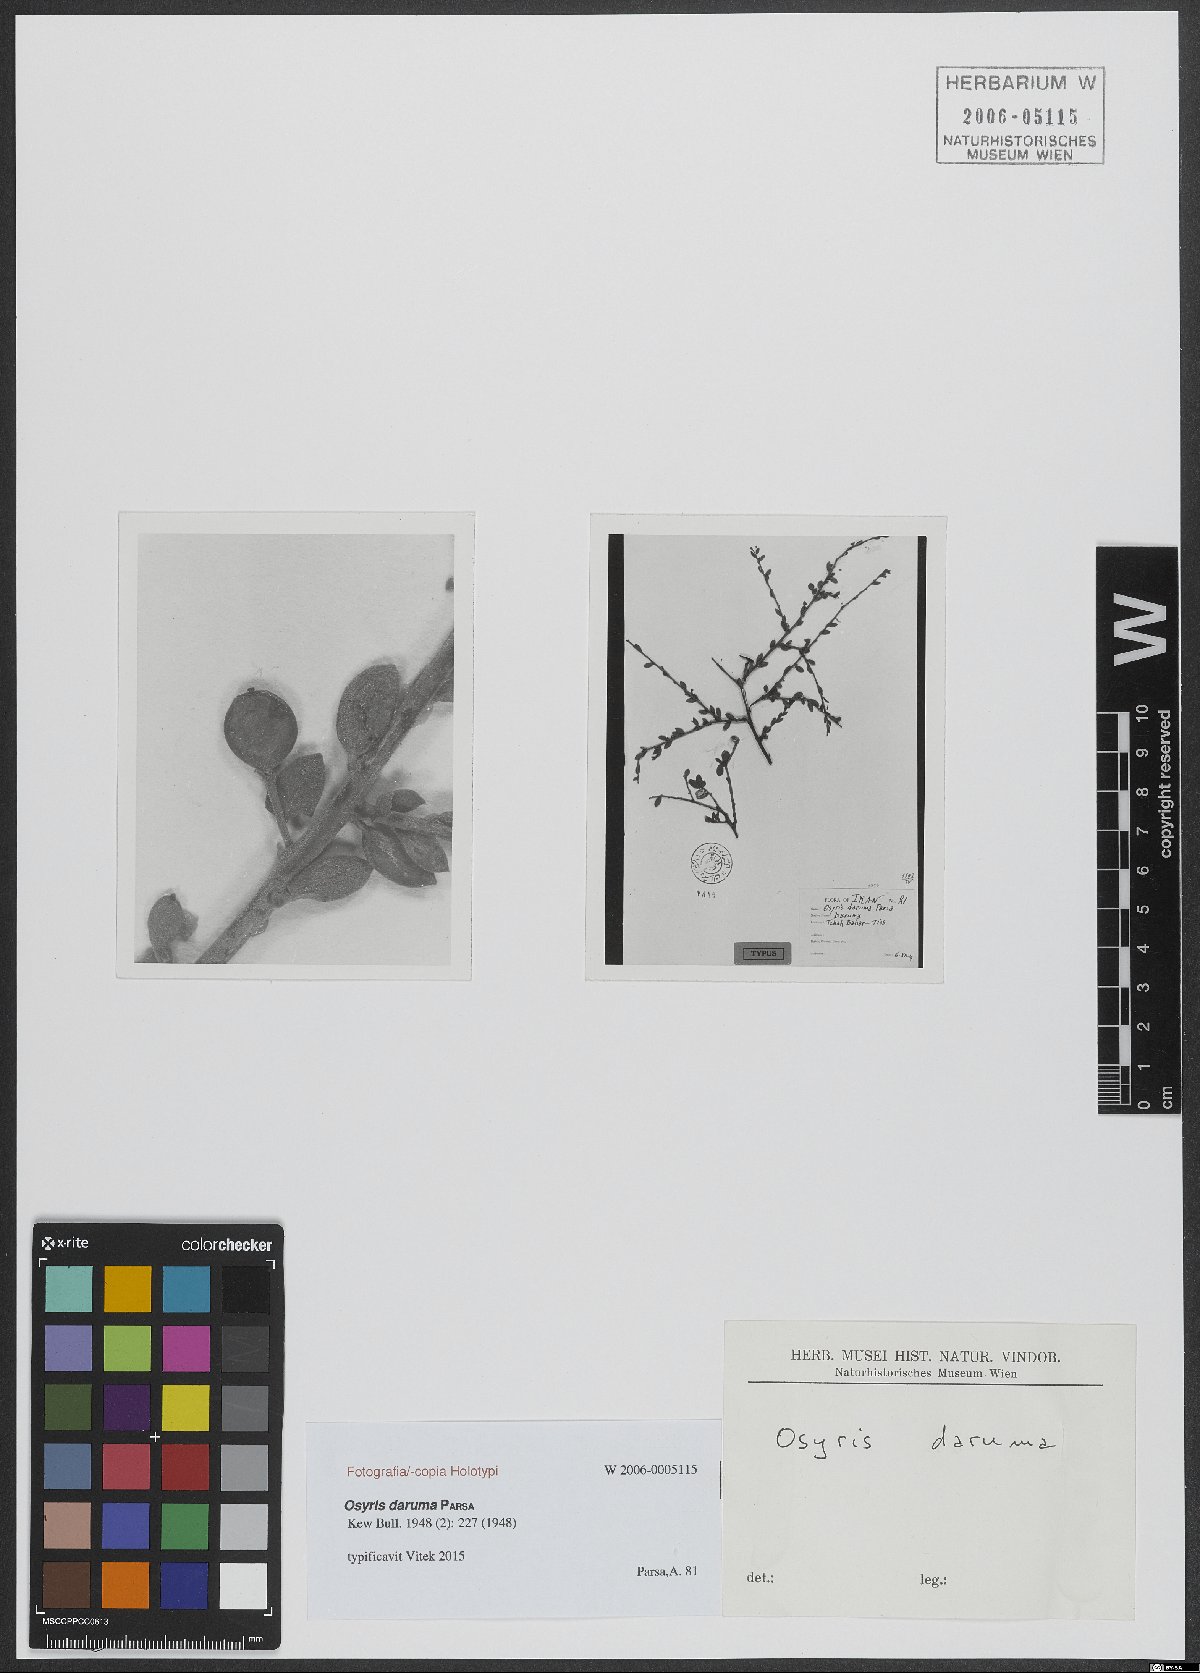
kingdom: Plantae
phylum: Tracheophyta
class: Magnoliopsida
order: Santalales
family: Santalaceae
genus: Osyris
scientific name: Osyris daruma
